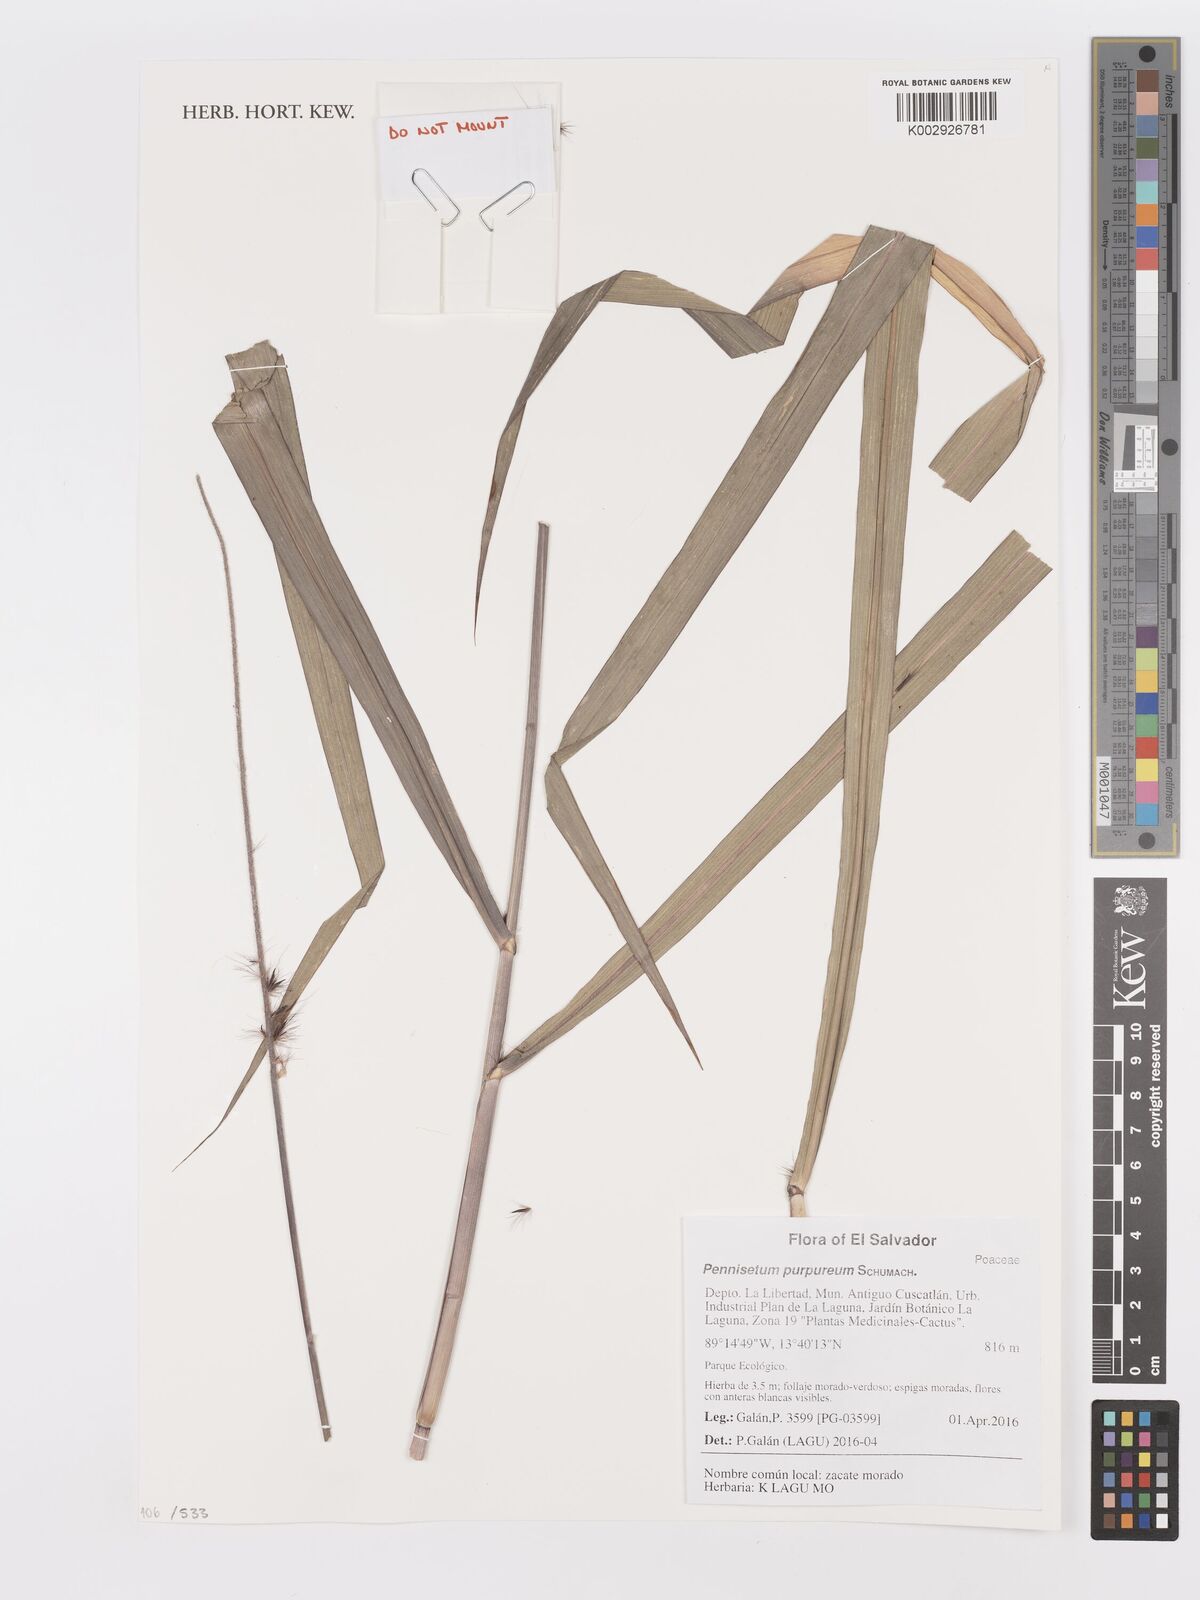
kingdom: Plantae
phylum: Tracheophyta
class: Liliopsida
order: Poales
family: Poaceae
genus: Cenchrus
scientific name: Cenchrus purpureus
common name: Elephant grass
